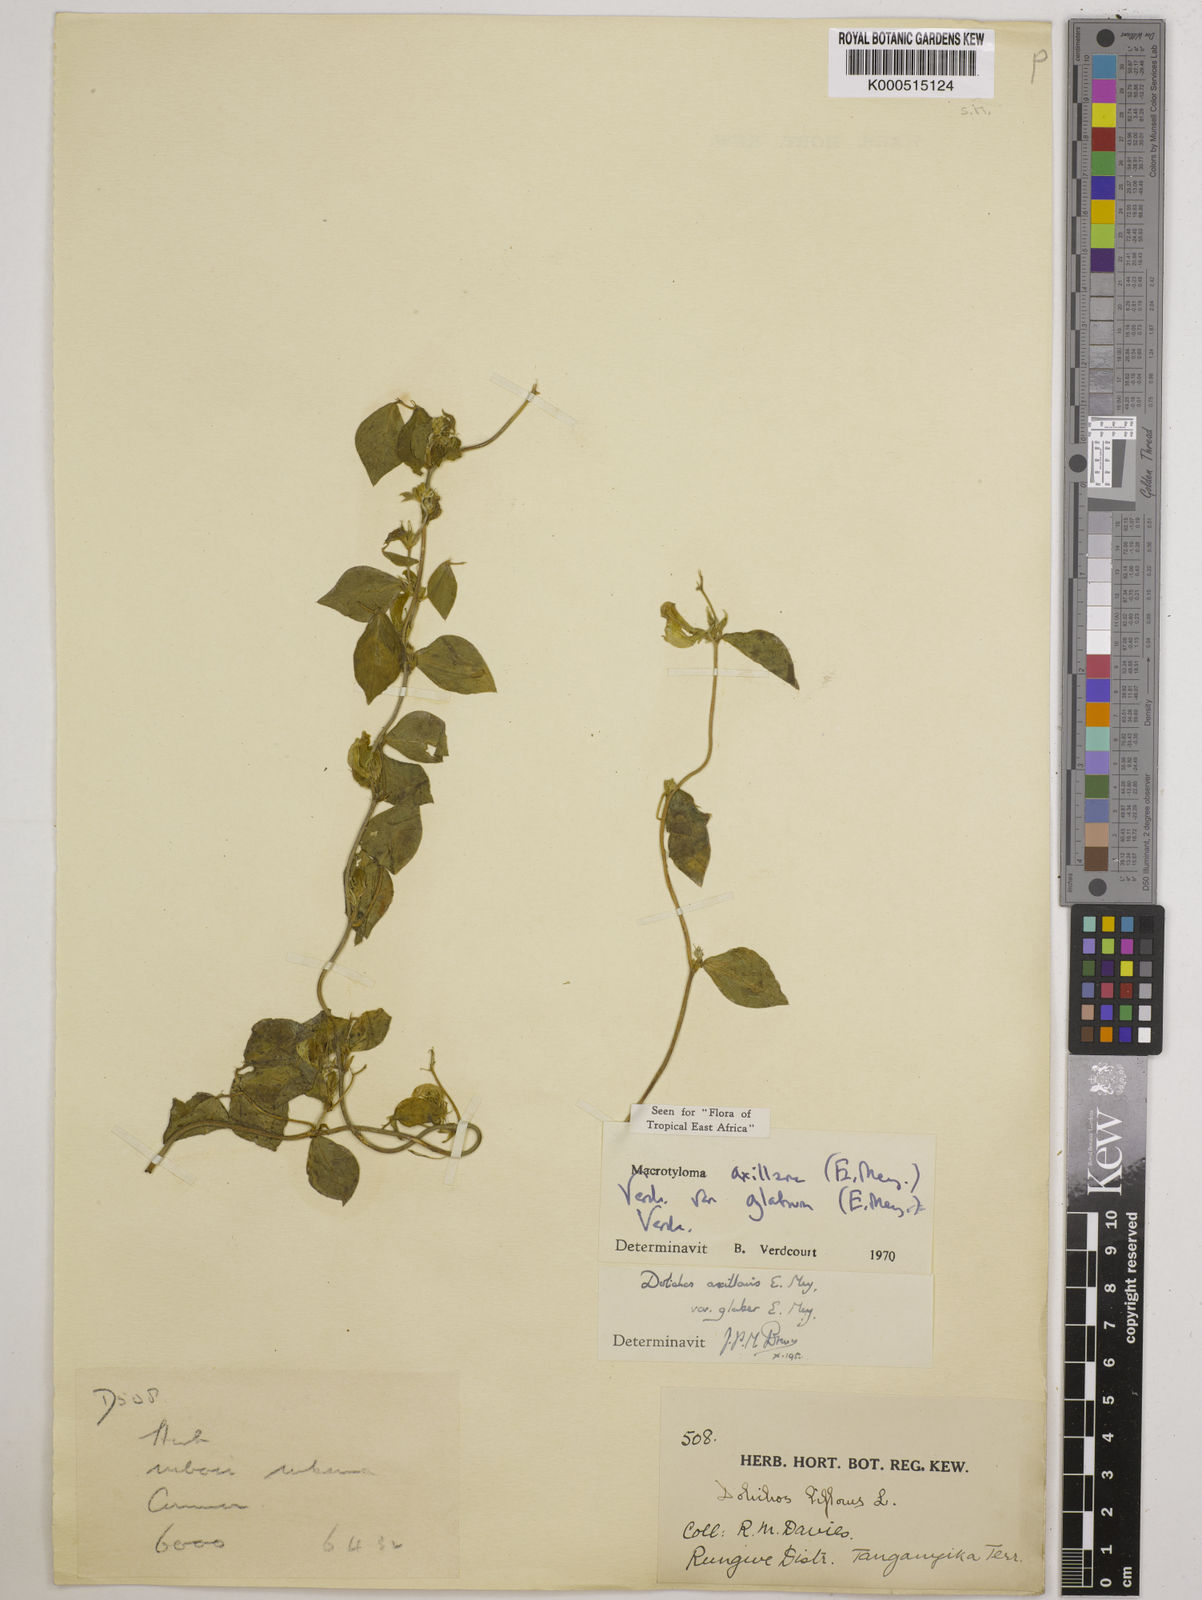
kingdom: Plantae
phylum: Tracheophyta
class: Magnoliopsida
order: Fabales
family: Fabaceae
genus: Macrotyloma
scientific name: Macrotyloma
